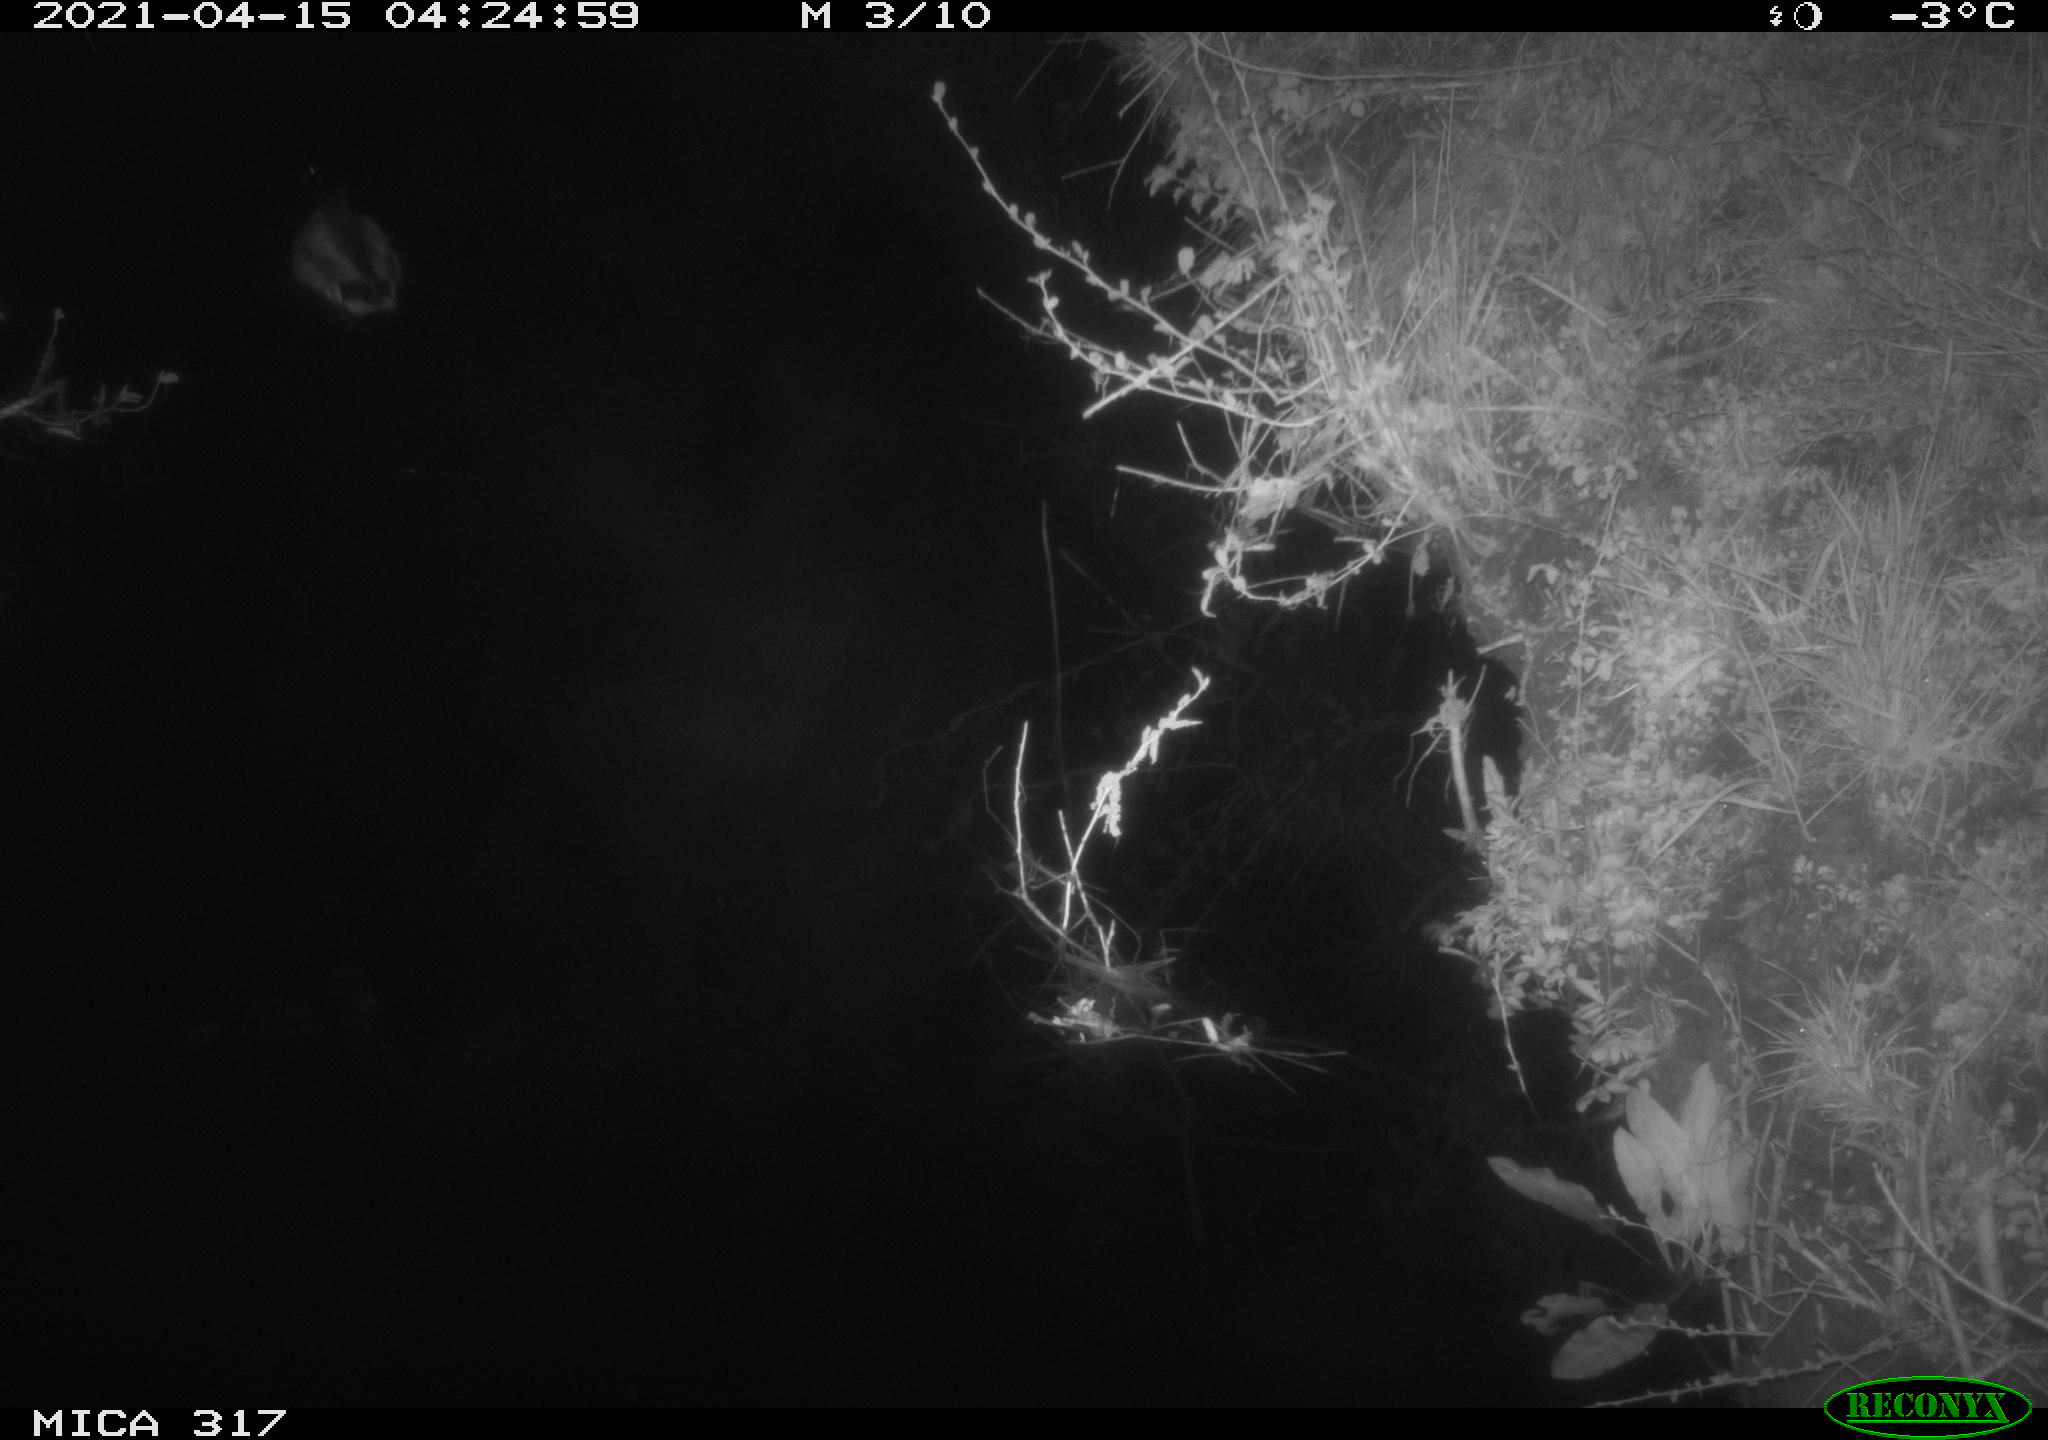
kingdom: Animalia
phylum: Chordata
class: Aves
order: Anseriformes
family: Anatidae
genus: Anas
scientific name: Anas platyrhynchos
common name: Mallard
